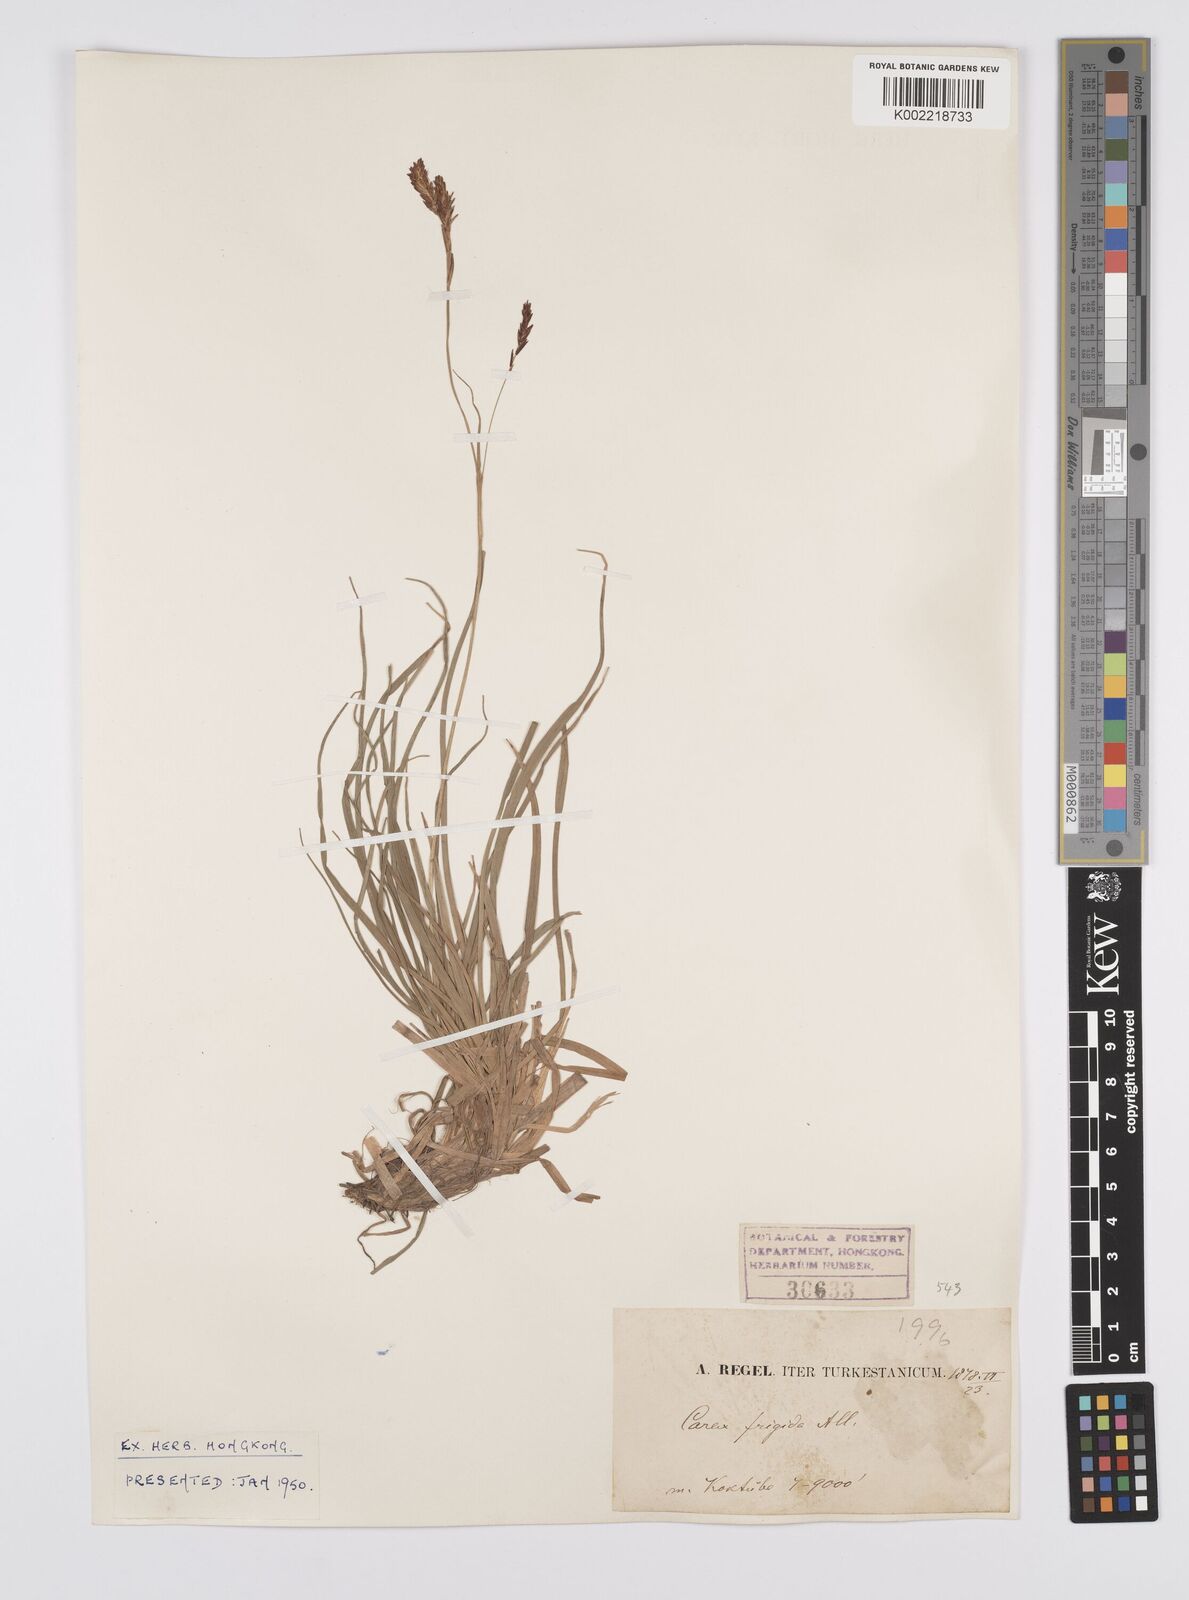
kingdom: Plantae
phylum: Tracheophyta
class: Liliopsida
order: Poales
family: Cyperaceae
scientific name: Cyperaceae
